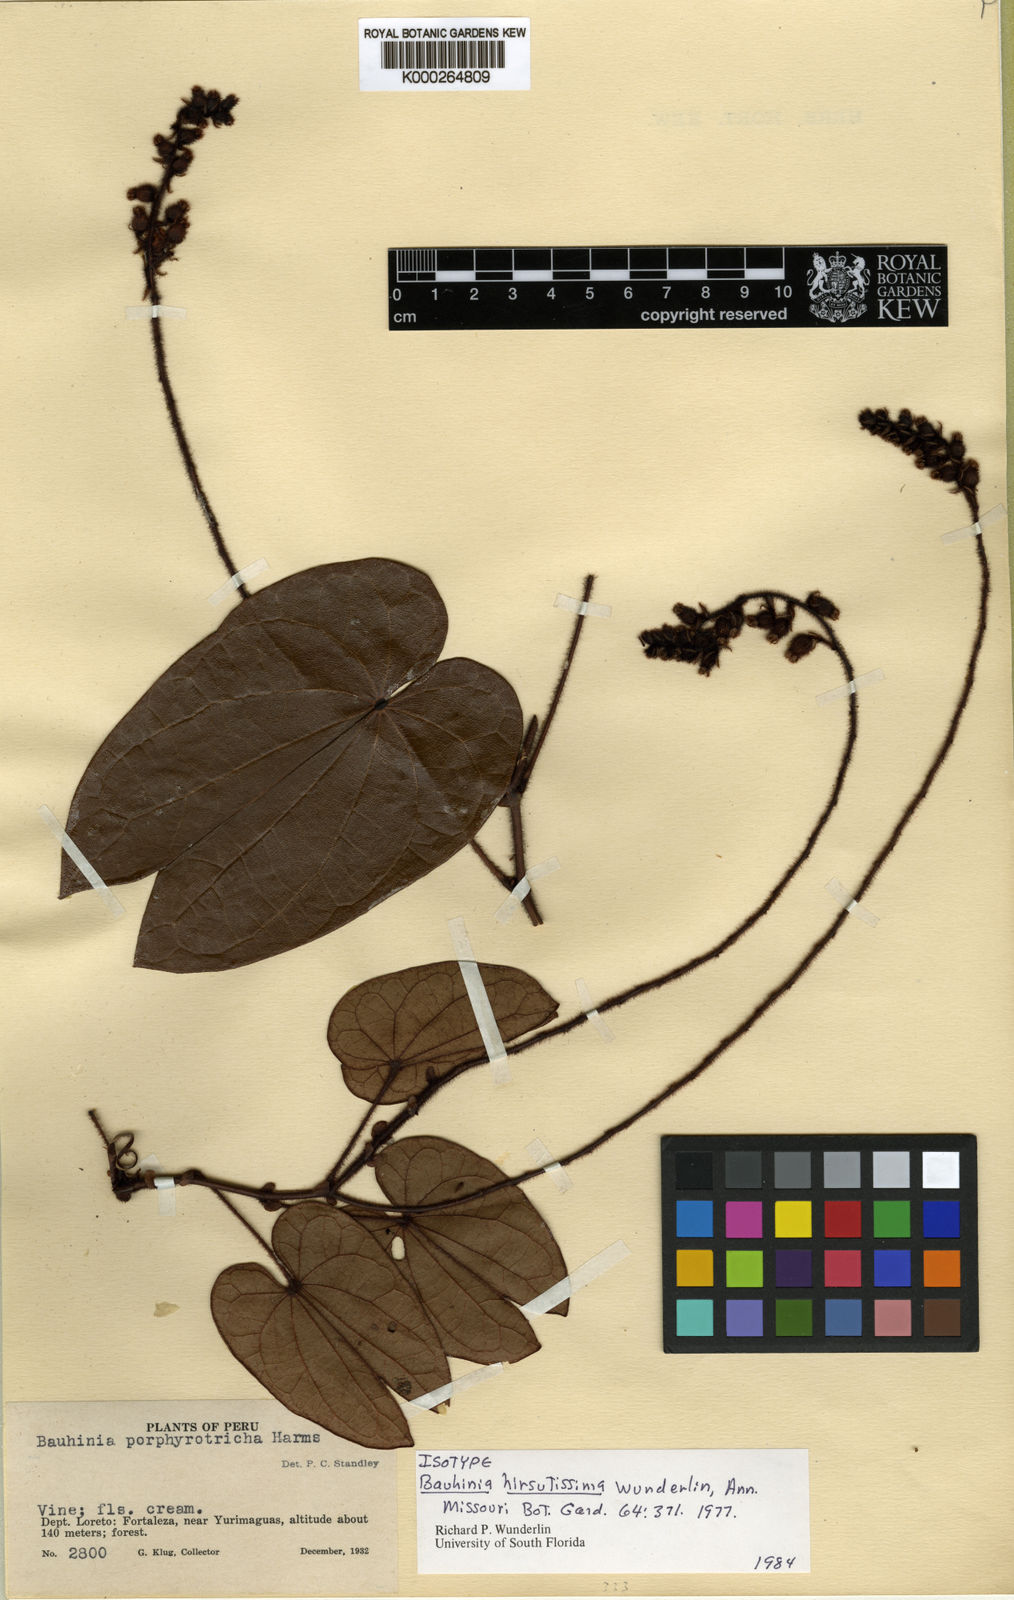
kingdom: Plantae
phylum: Tracheophyta
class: Magnoliopsida
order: Fabales
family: Fabaceae
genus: Schnella
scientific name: Schnella hirsutissima
